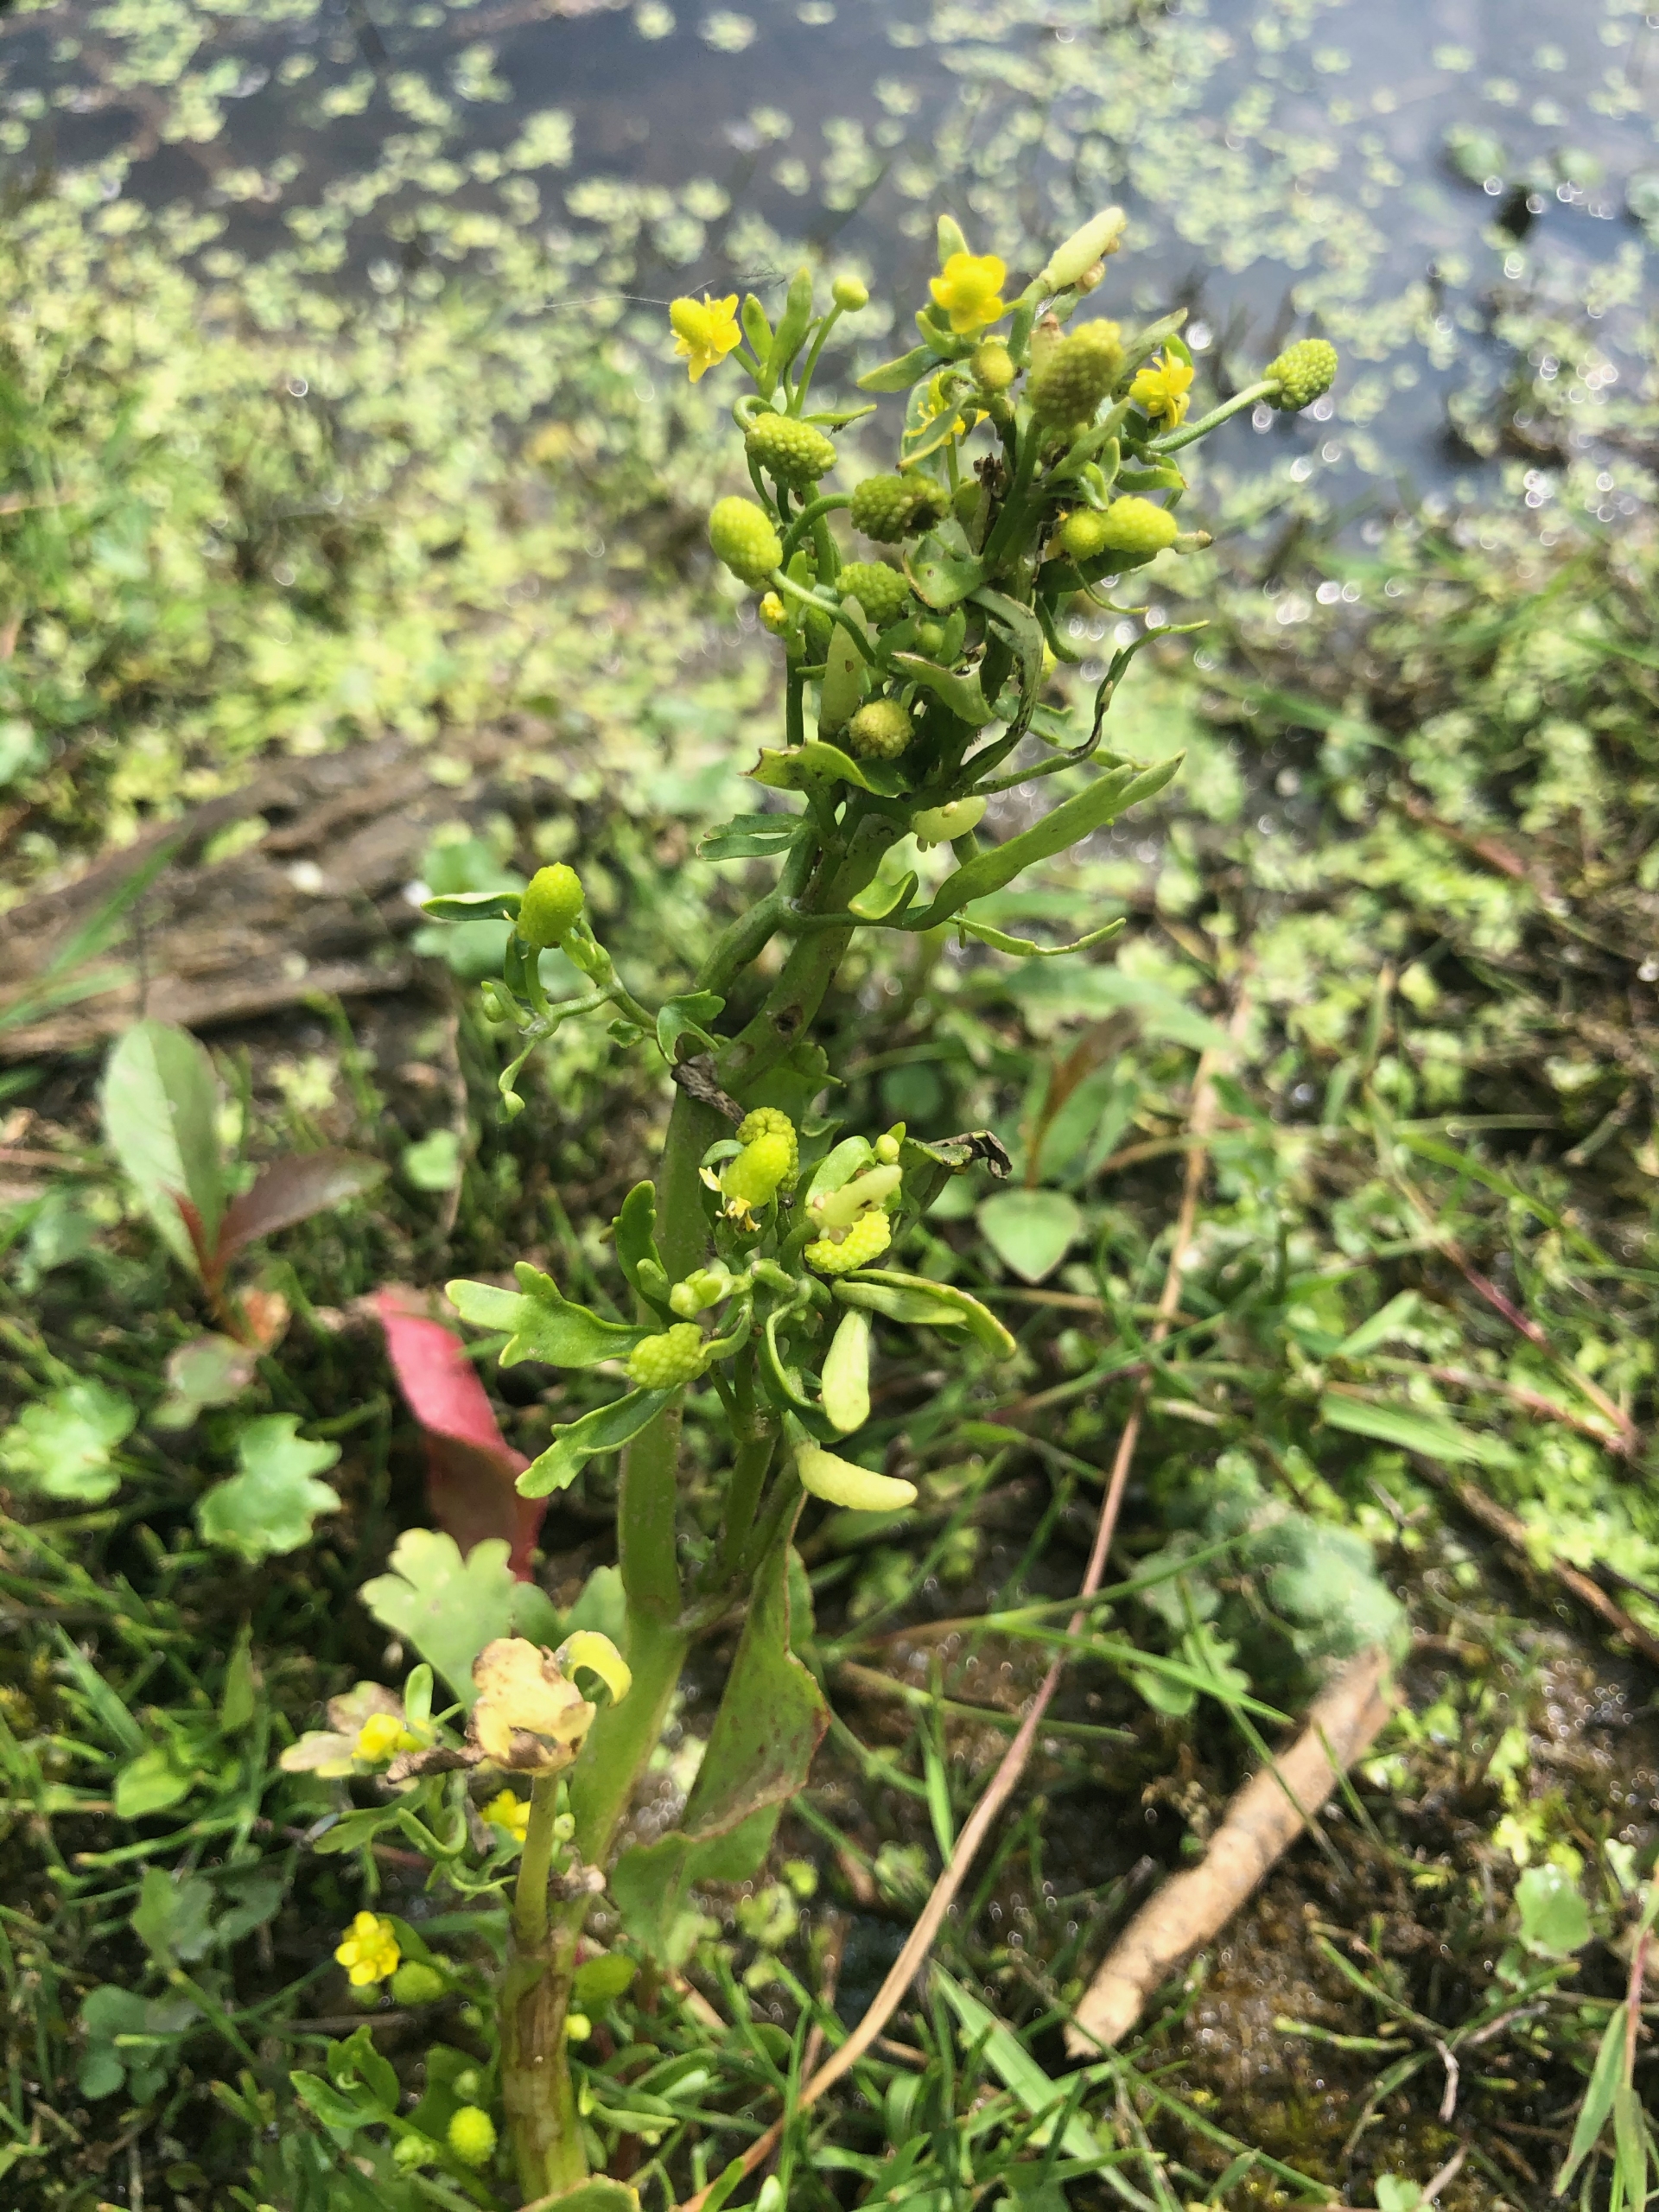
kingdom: Plantae
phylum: Tracheophyta
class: Magnoliopsida
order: Ranunculales
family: Ranunculaceae
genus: Ranunculus
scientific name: Ranunculus sceleratus
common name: Tigger-ranunkel
